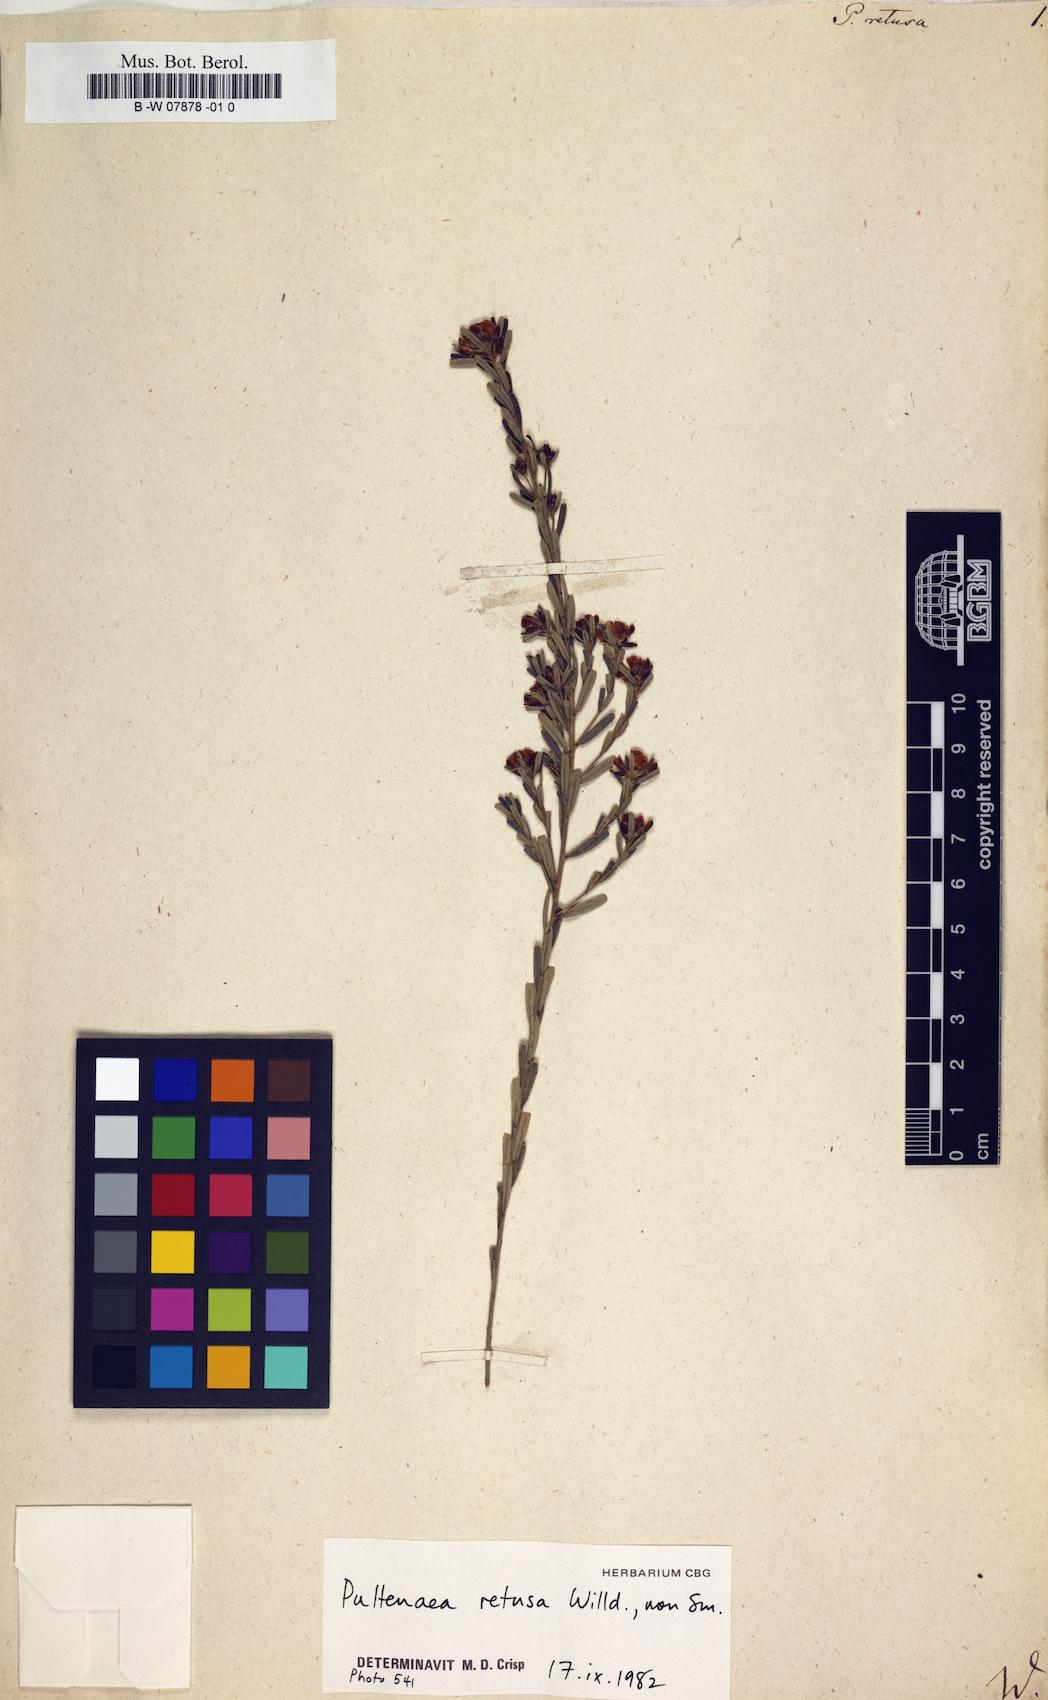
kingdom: Plantae
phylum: Tracheophyta
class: Magnoliopsida
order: Fabales
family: Fabaceae
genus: Pultenaea
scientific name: Pultenaea retusa
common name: Blunt bush-pea
